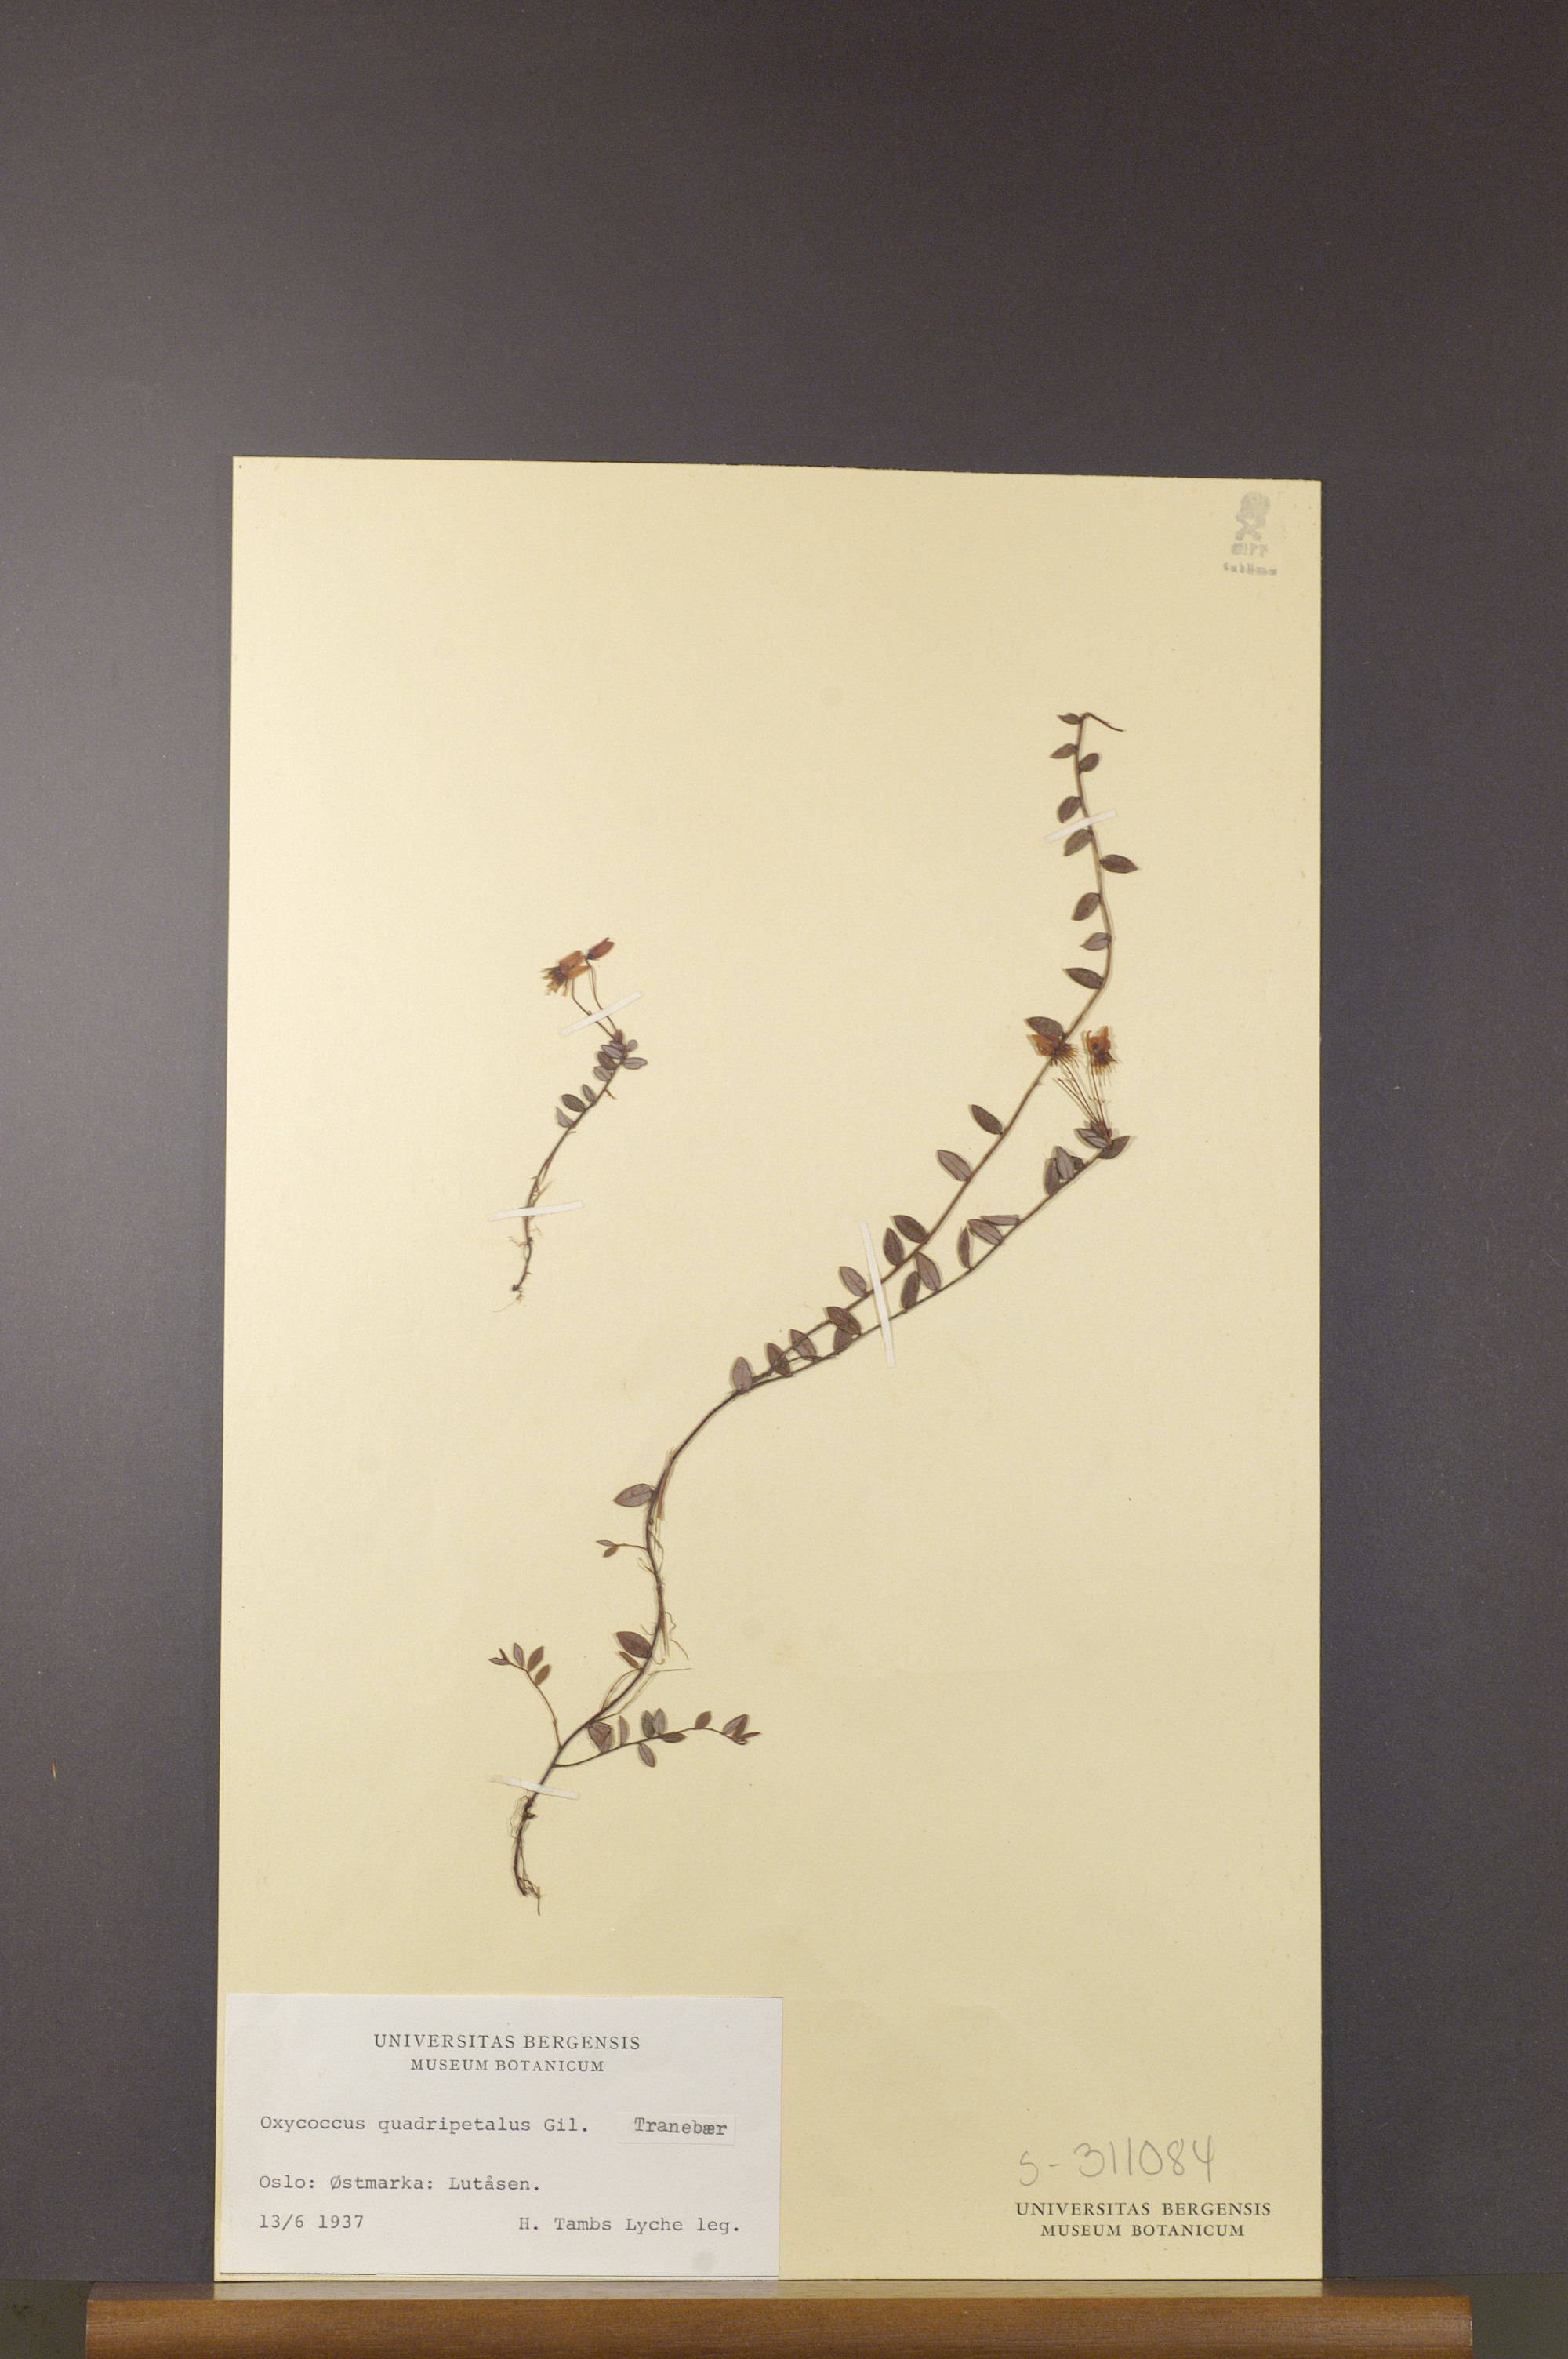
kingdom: Plantae
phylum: Tracheophyta
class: Magnoliopsida
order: Ericales
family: Ericaceae
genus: Vaccinium
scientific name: Vaccinium oxycoccos
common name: Cranberry
